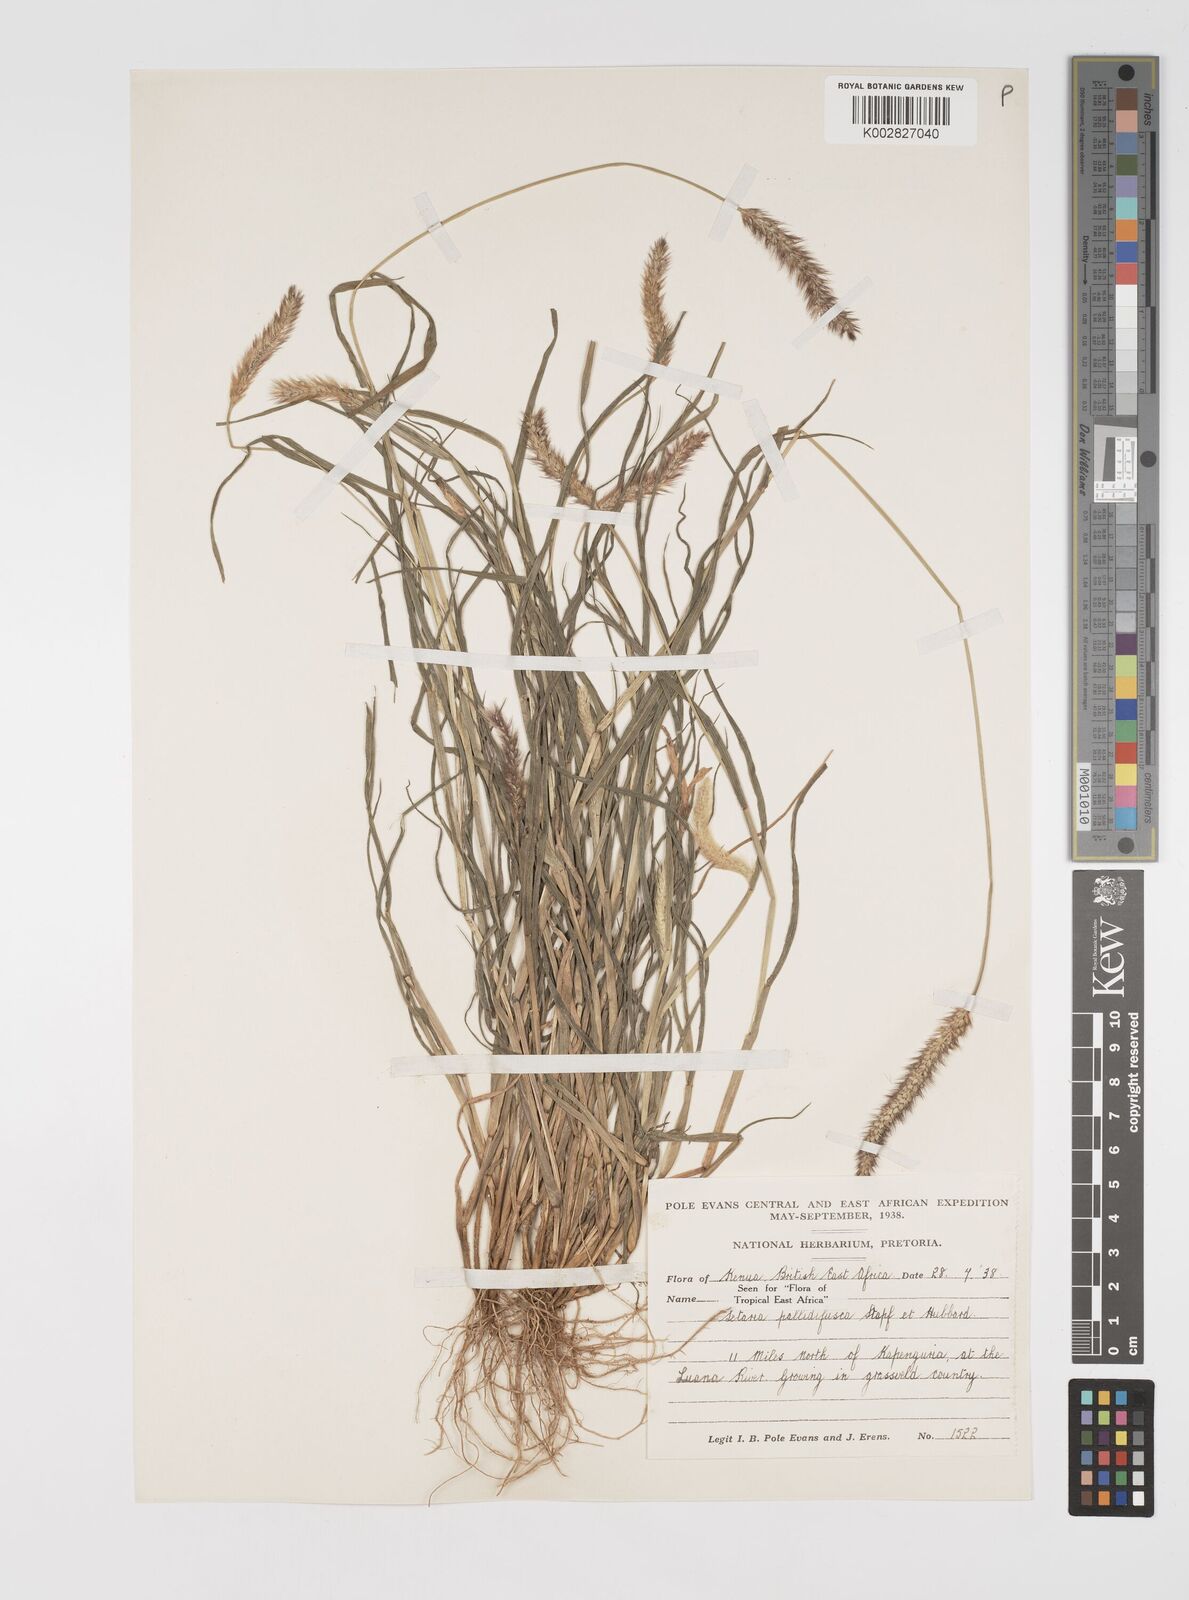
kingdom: Plantae
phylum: Tracheophyta
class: Liliopsida
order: Poales
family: Poaceae
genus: Setaria
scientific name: Setaria pumila
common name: Yellow bristle-grass
